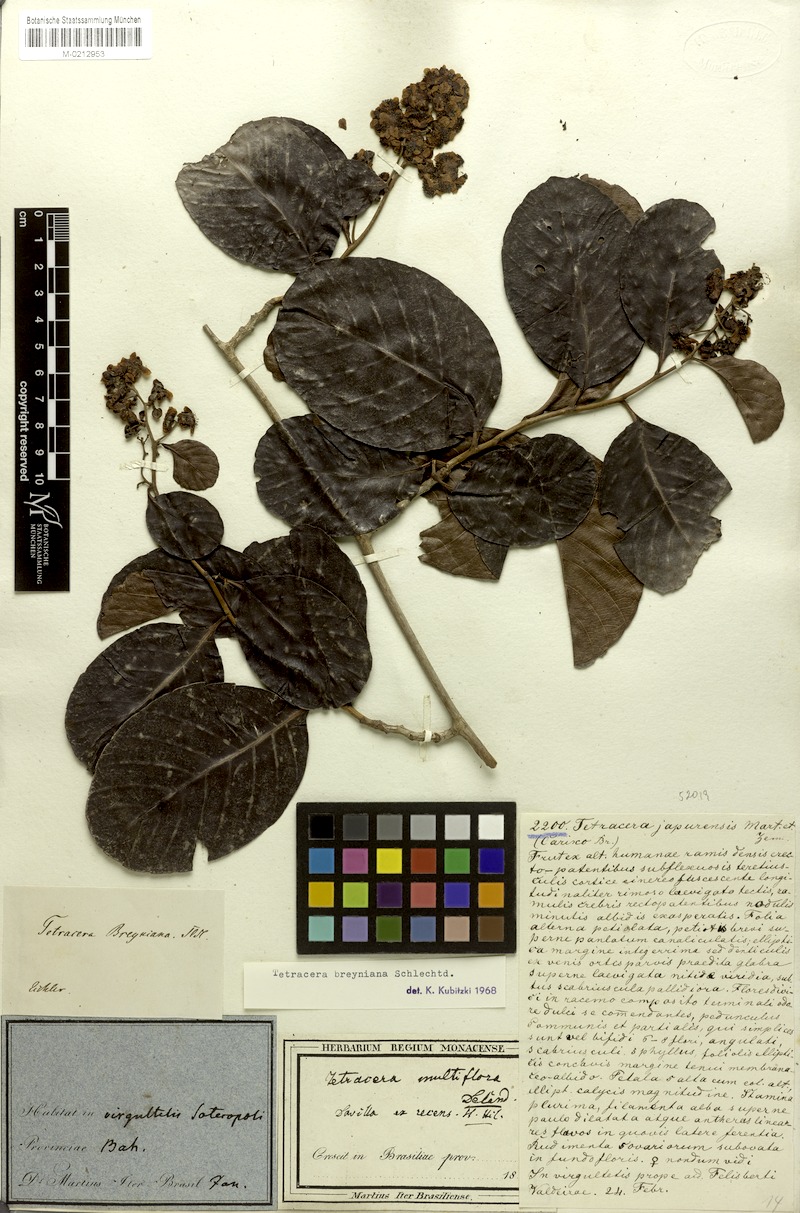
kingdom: Plantae
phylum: Tracheophyta
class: Magnoliopsida
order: Dilleniales
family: Dilleniaceae
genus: Tetracera
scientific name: Tetracera breyniana
